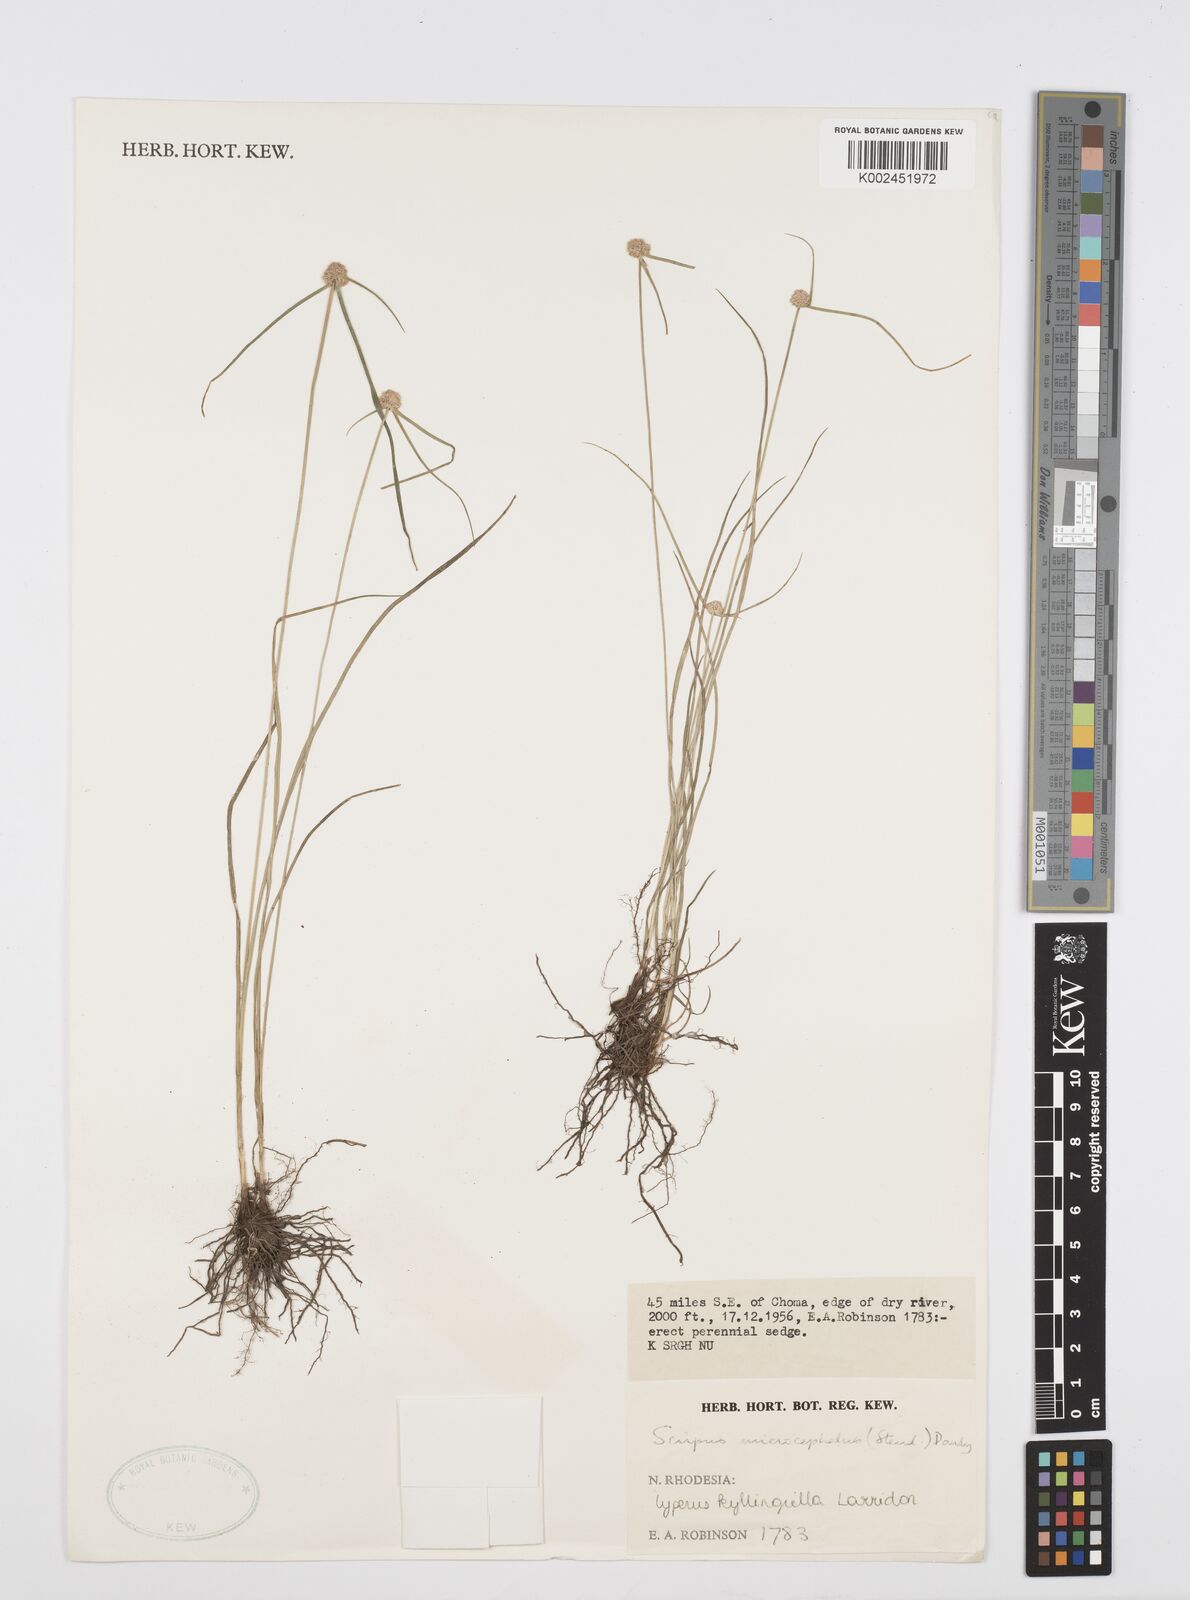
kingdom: Plantae
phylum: Tracheophyta
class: Liliopsida
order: Poales
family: Cyperaceae
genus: Cyperus
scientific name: Cyperus microcephalus
